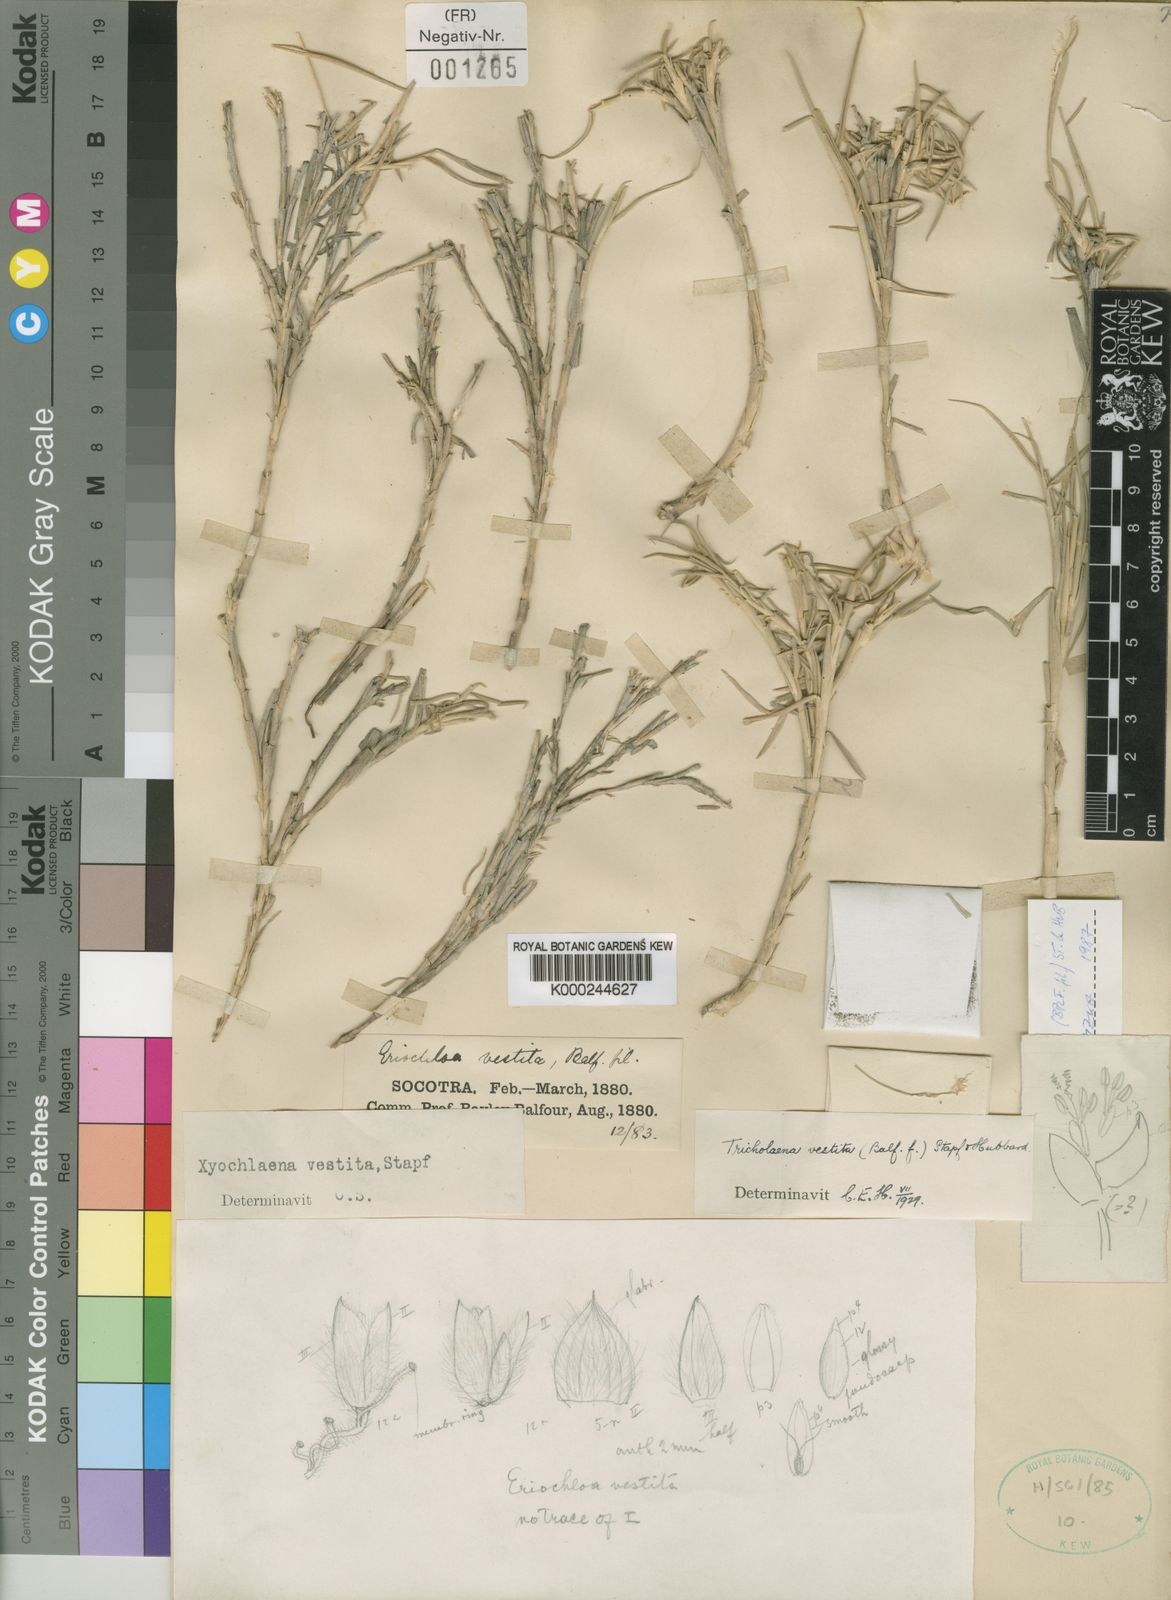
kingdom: Plantae
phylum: Tracheophyta
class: Liliopsida
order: Poales
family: Poaceae
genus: Tricholaena
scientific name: Tricholaena vestita
